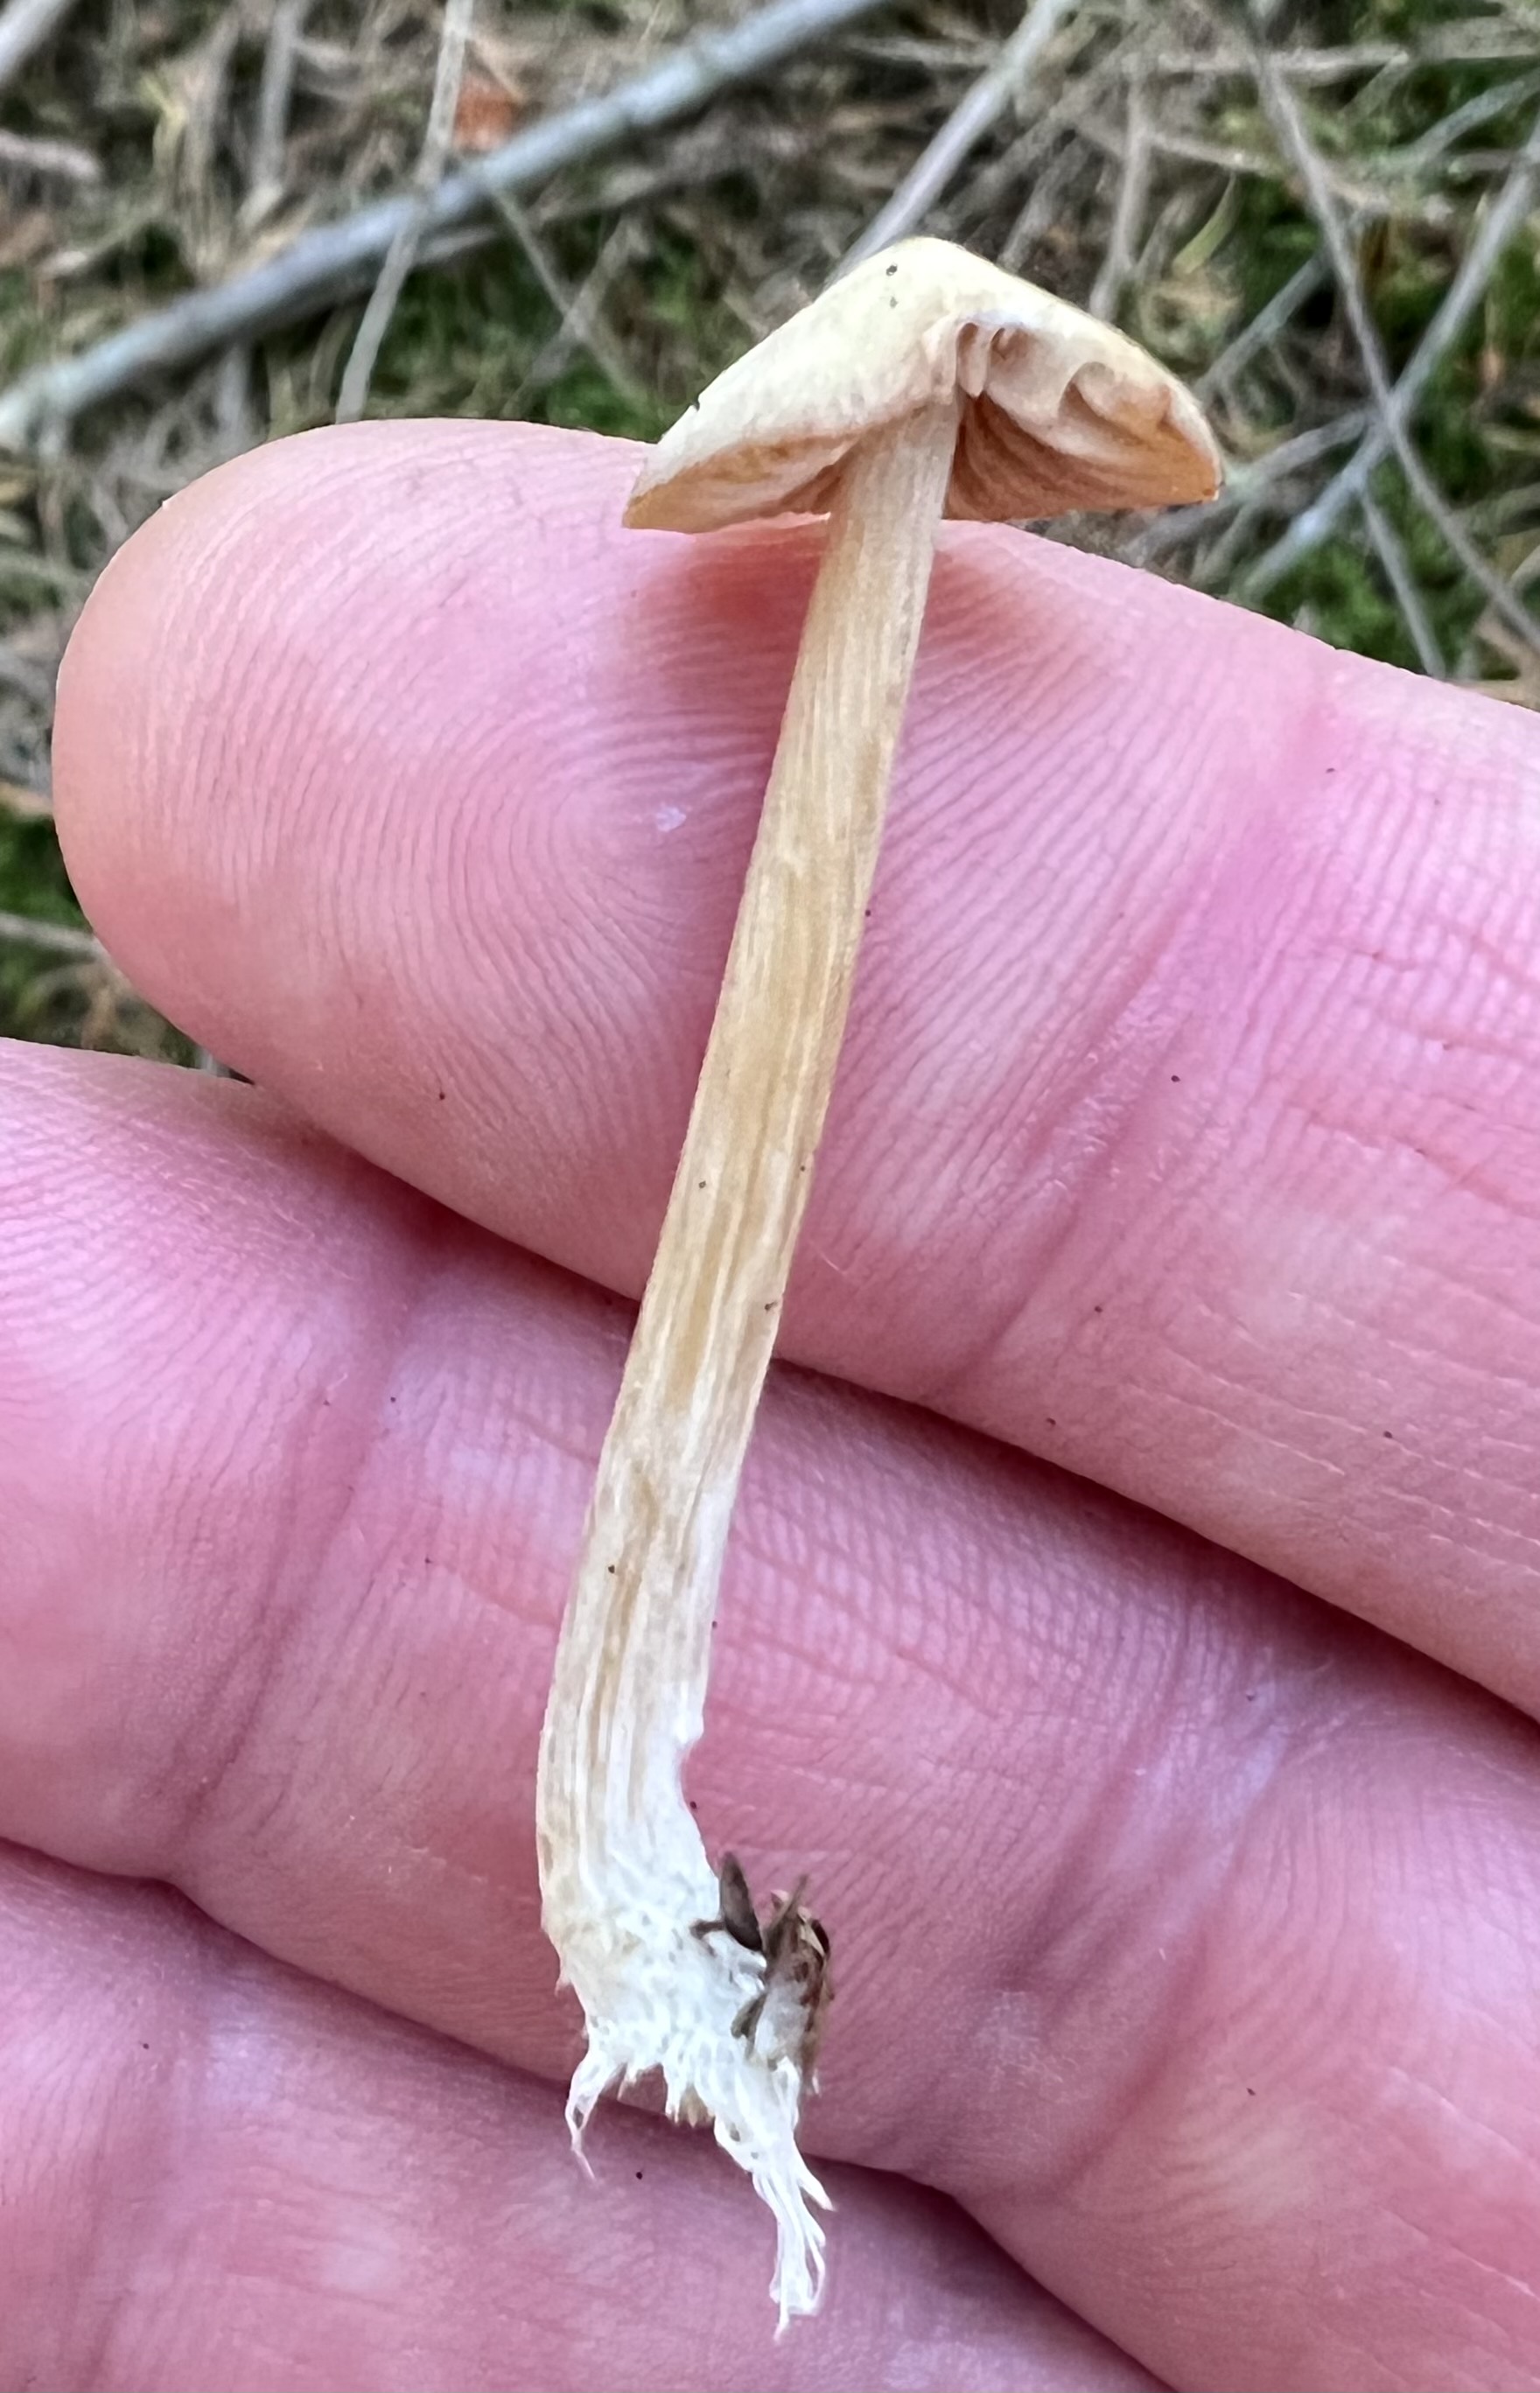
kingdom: Fungi
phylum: Basidiomycota
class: Agaricomycetes
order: Agaricales
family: Entolomataceae
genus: Entoloma
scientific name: Entoloma
